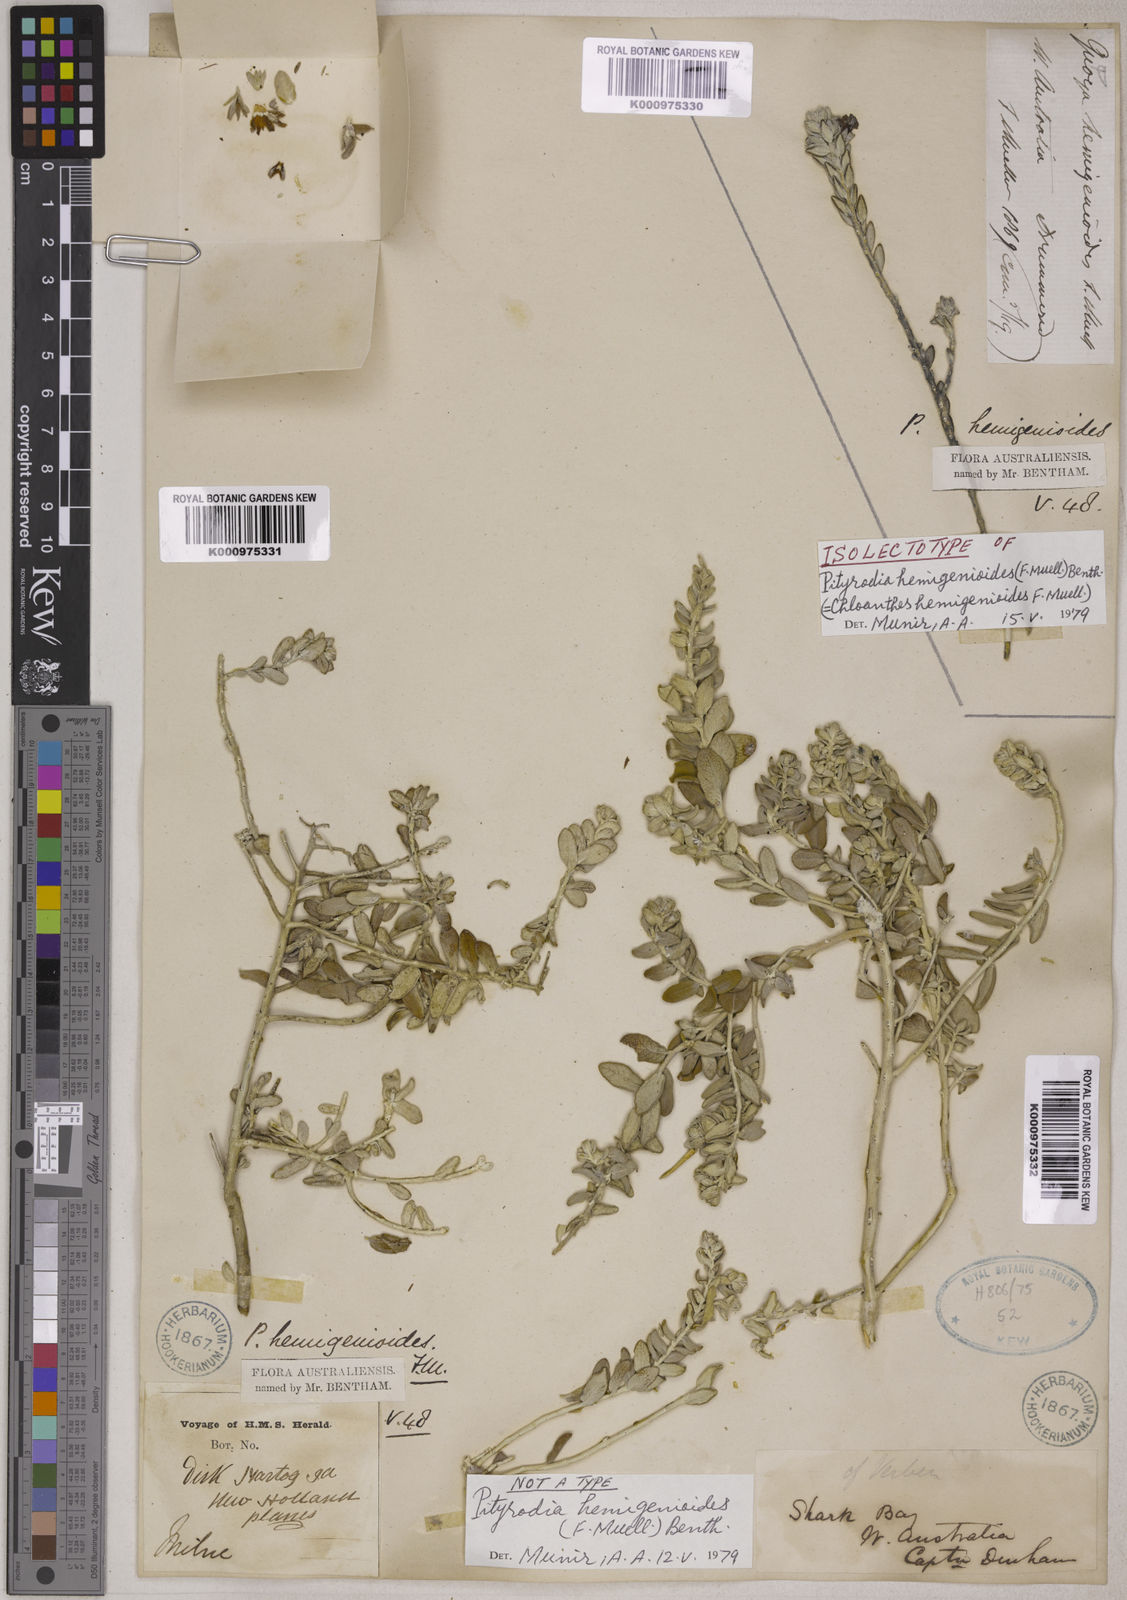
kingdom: Plantae
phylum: Tracheophyta
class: Magnoliopsida
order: Lamiales
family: Lamiaceae
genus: Pityrodia
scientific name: Pityrodia hemigenioides
